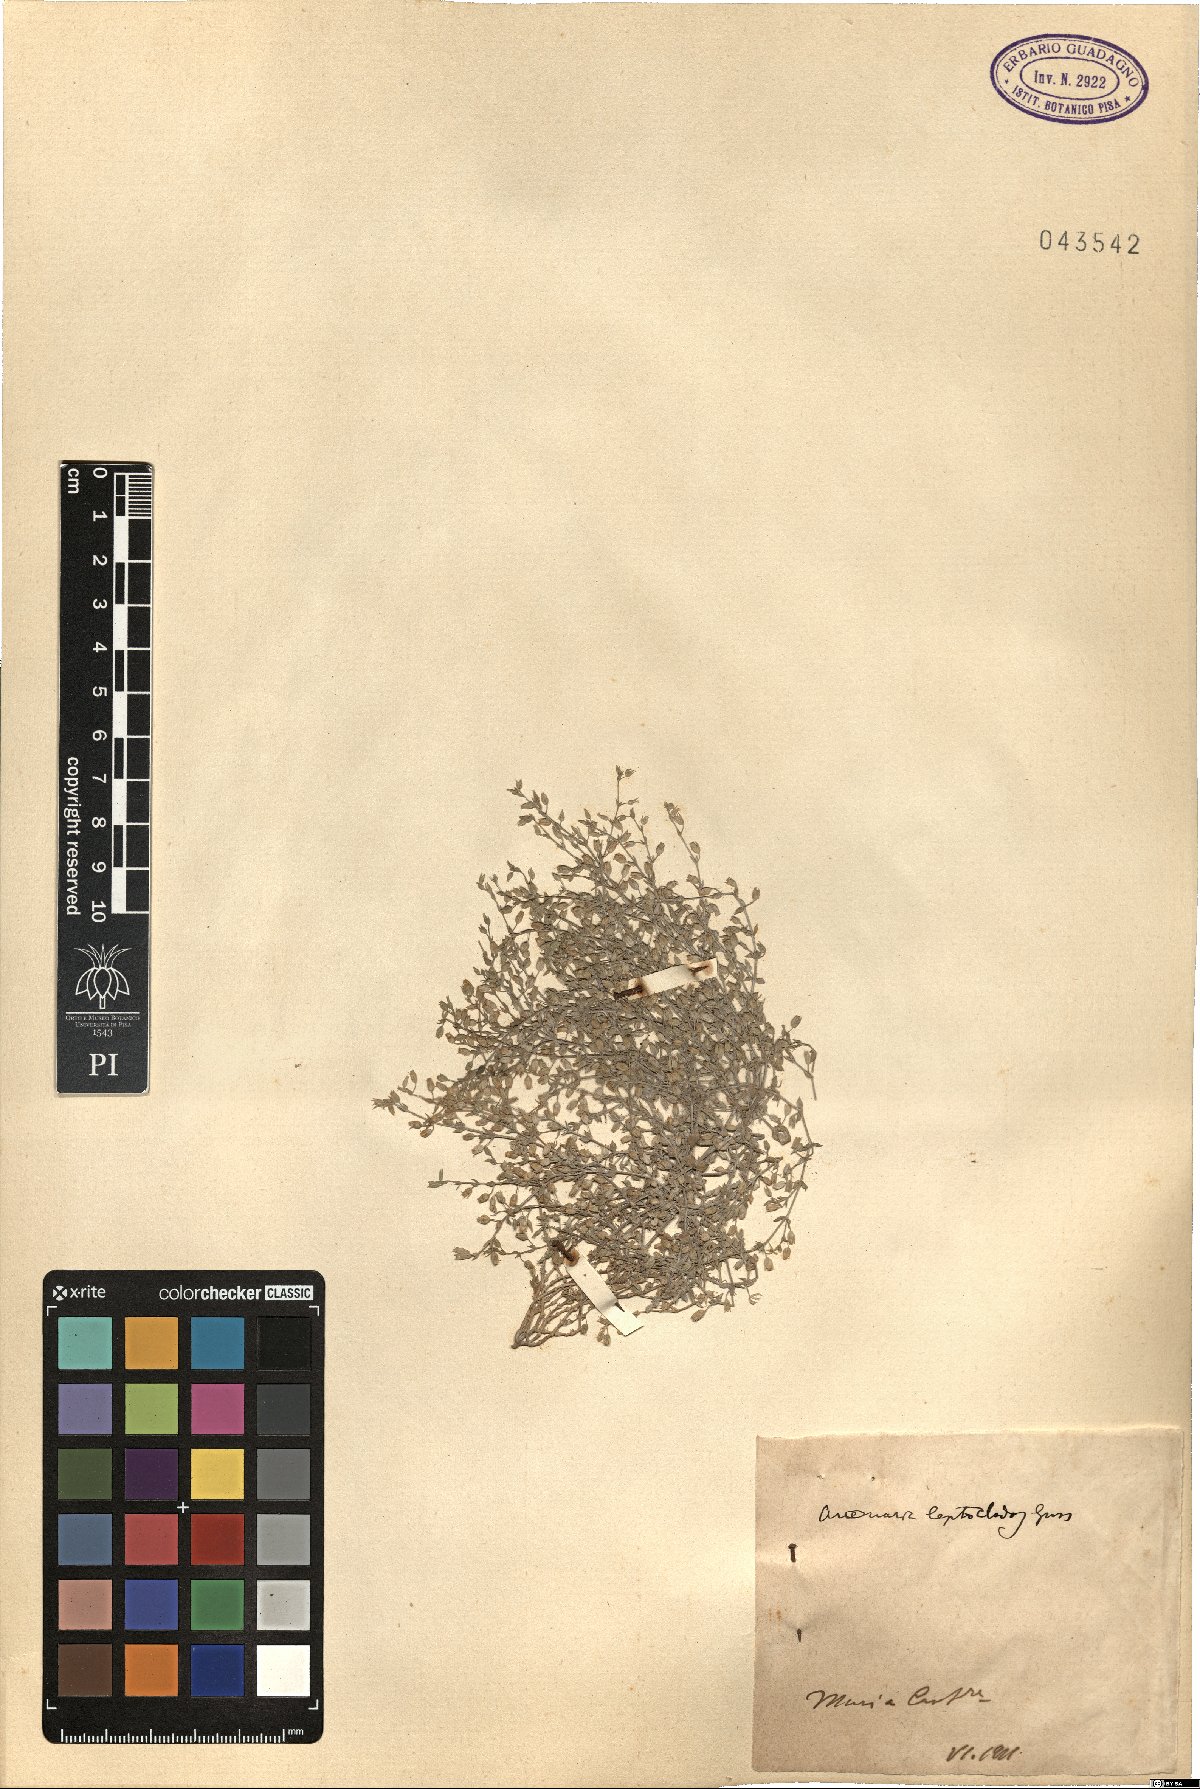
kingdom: Plantae
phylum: Tracheophyta
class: Magnoliopsida
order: Caryophyllales
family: Caryophyllaceae
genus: Arenaria
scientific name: Arenaria leptoclados
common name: Thyme-leaved sandwort
